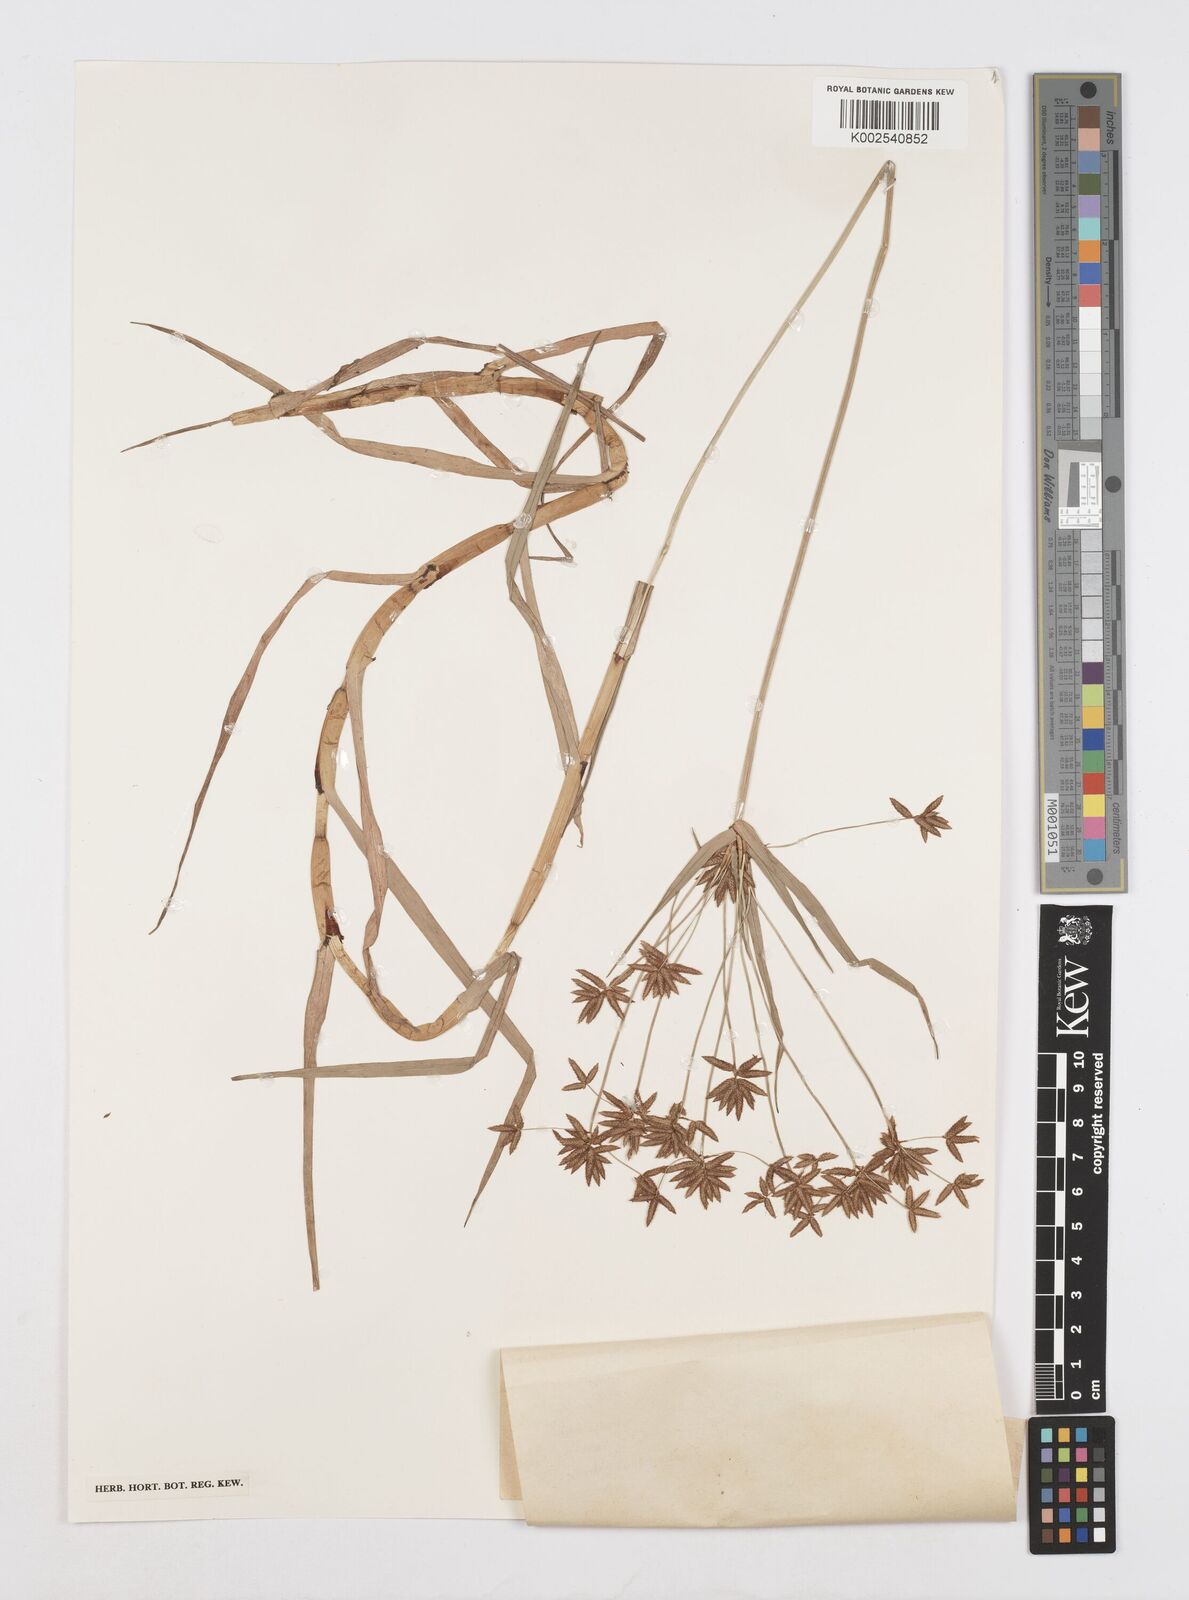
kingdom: Plantae
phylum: Tracheophyta
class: Liliopsida
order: Poales
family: Cyperaceae
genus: Cyperus
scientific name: Cyperus mundii
